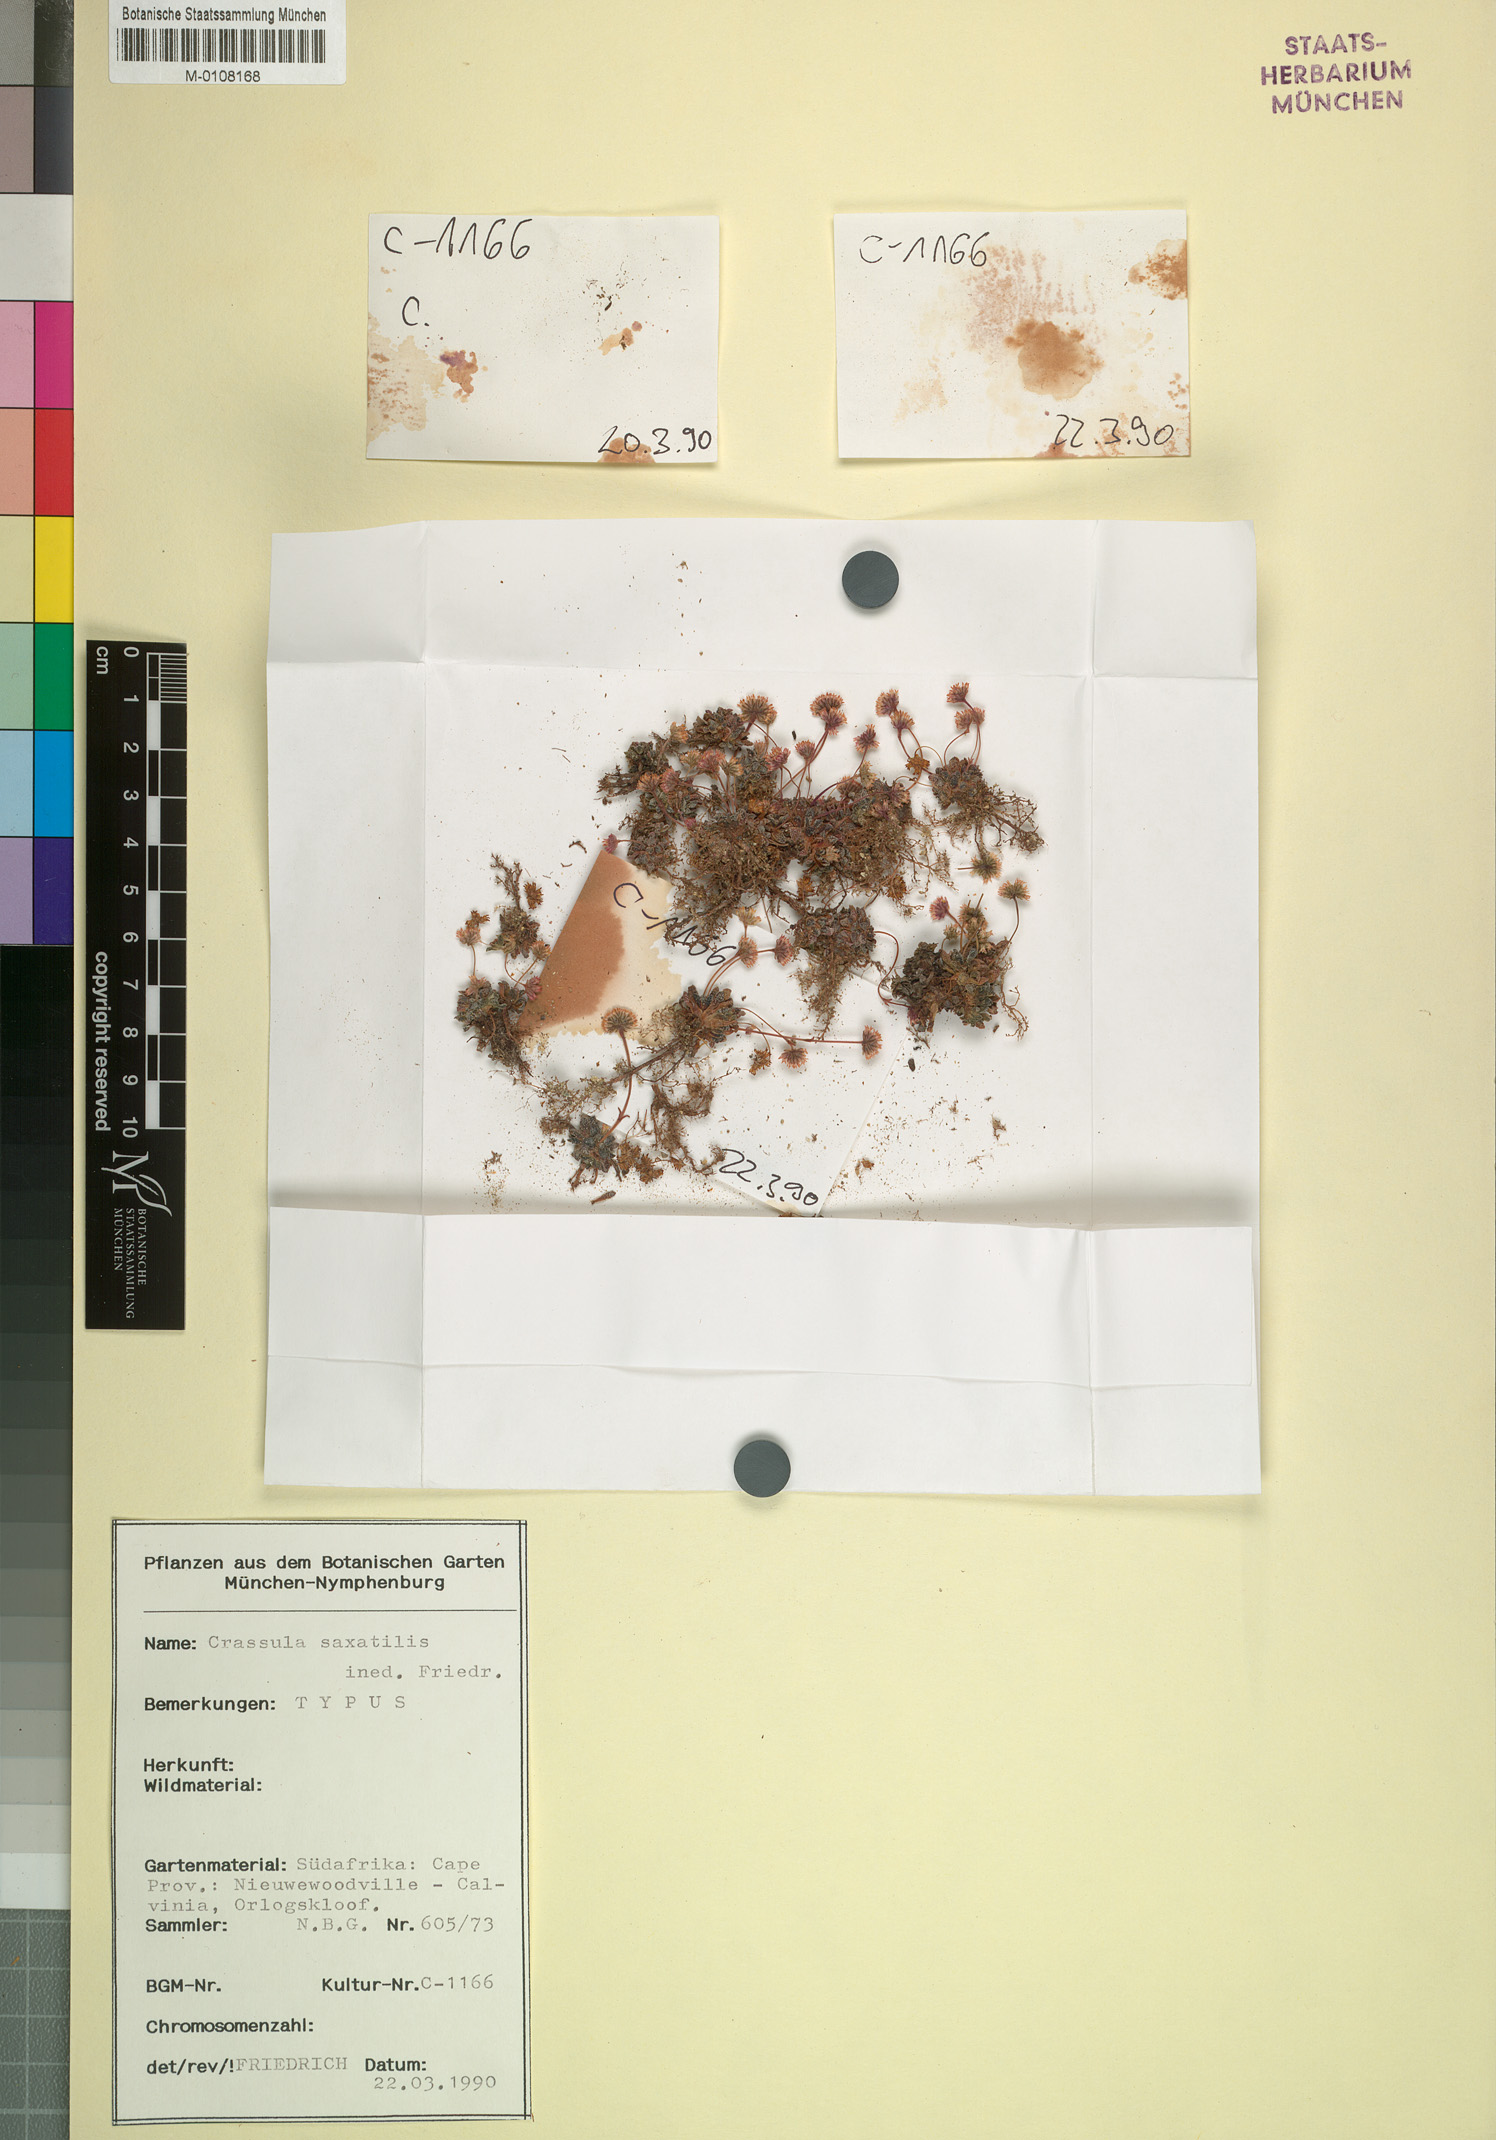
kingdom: Plantae
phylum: Tracheophyta
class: Magnoliopsida
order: Saxifragales
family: Crassulaceae
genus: Crassula
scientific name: Crassula
